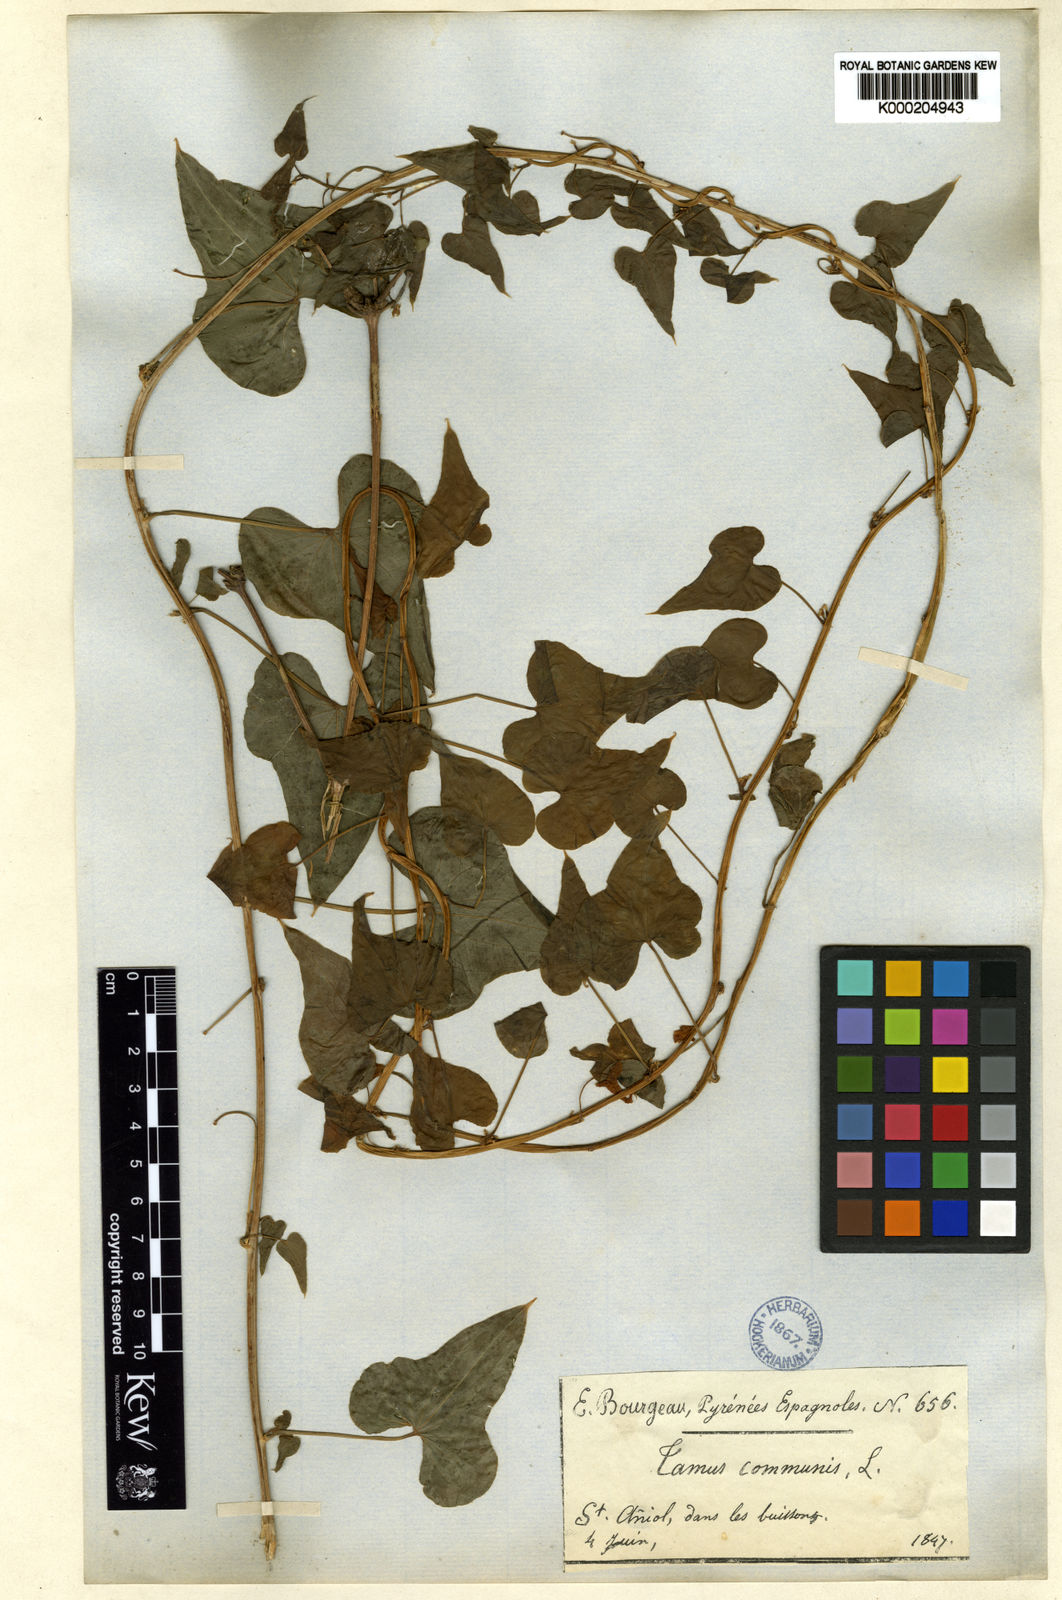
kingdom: Plantae
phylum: Tracheophyta
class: Liliopsida
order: Dioscoreales
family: Dioscoreaceae
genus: Dioscorea
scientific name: Dioscorea communis
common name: Black-bindweed
